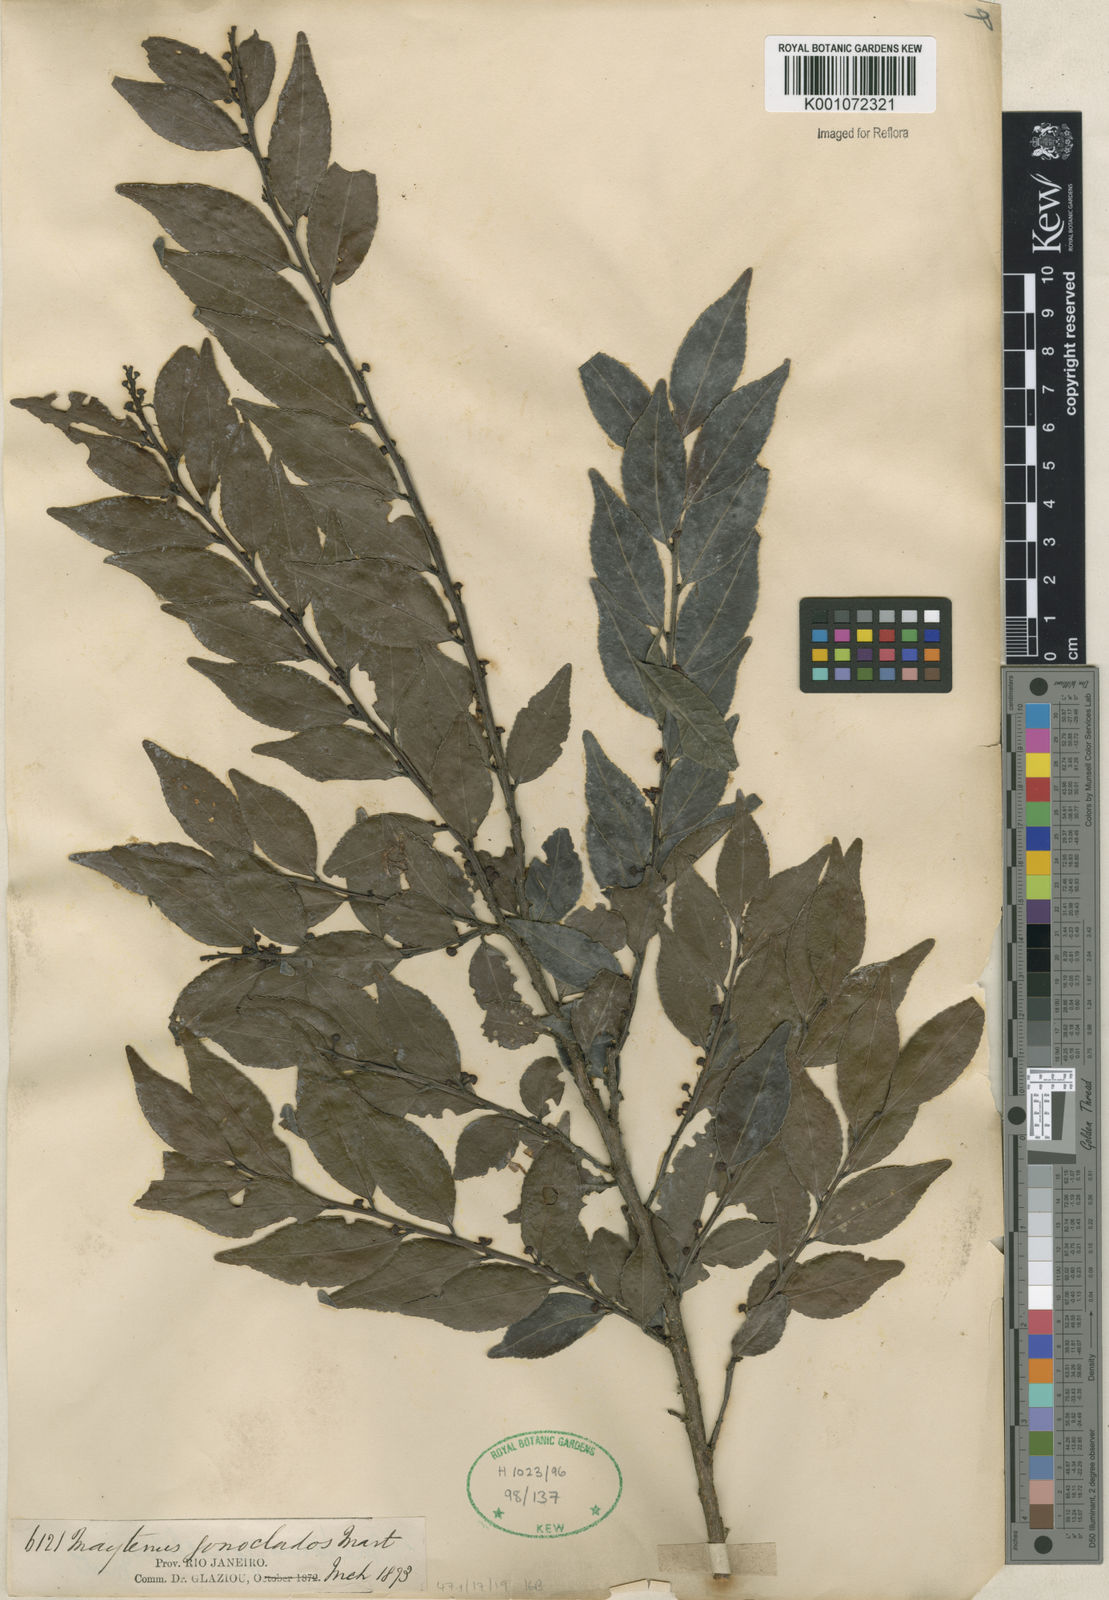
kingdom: Plantae
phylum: Tracheophyta
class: Magnoliopsida
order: Celastrales
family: Celastraceae
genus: Maytenus
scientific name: Maytenus
